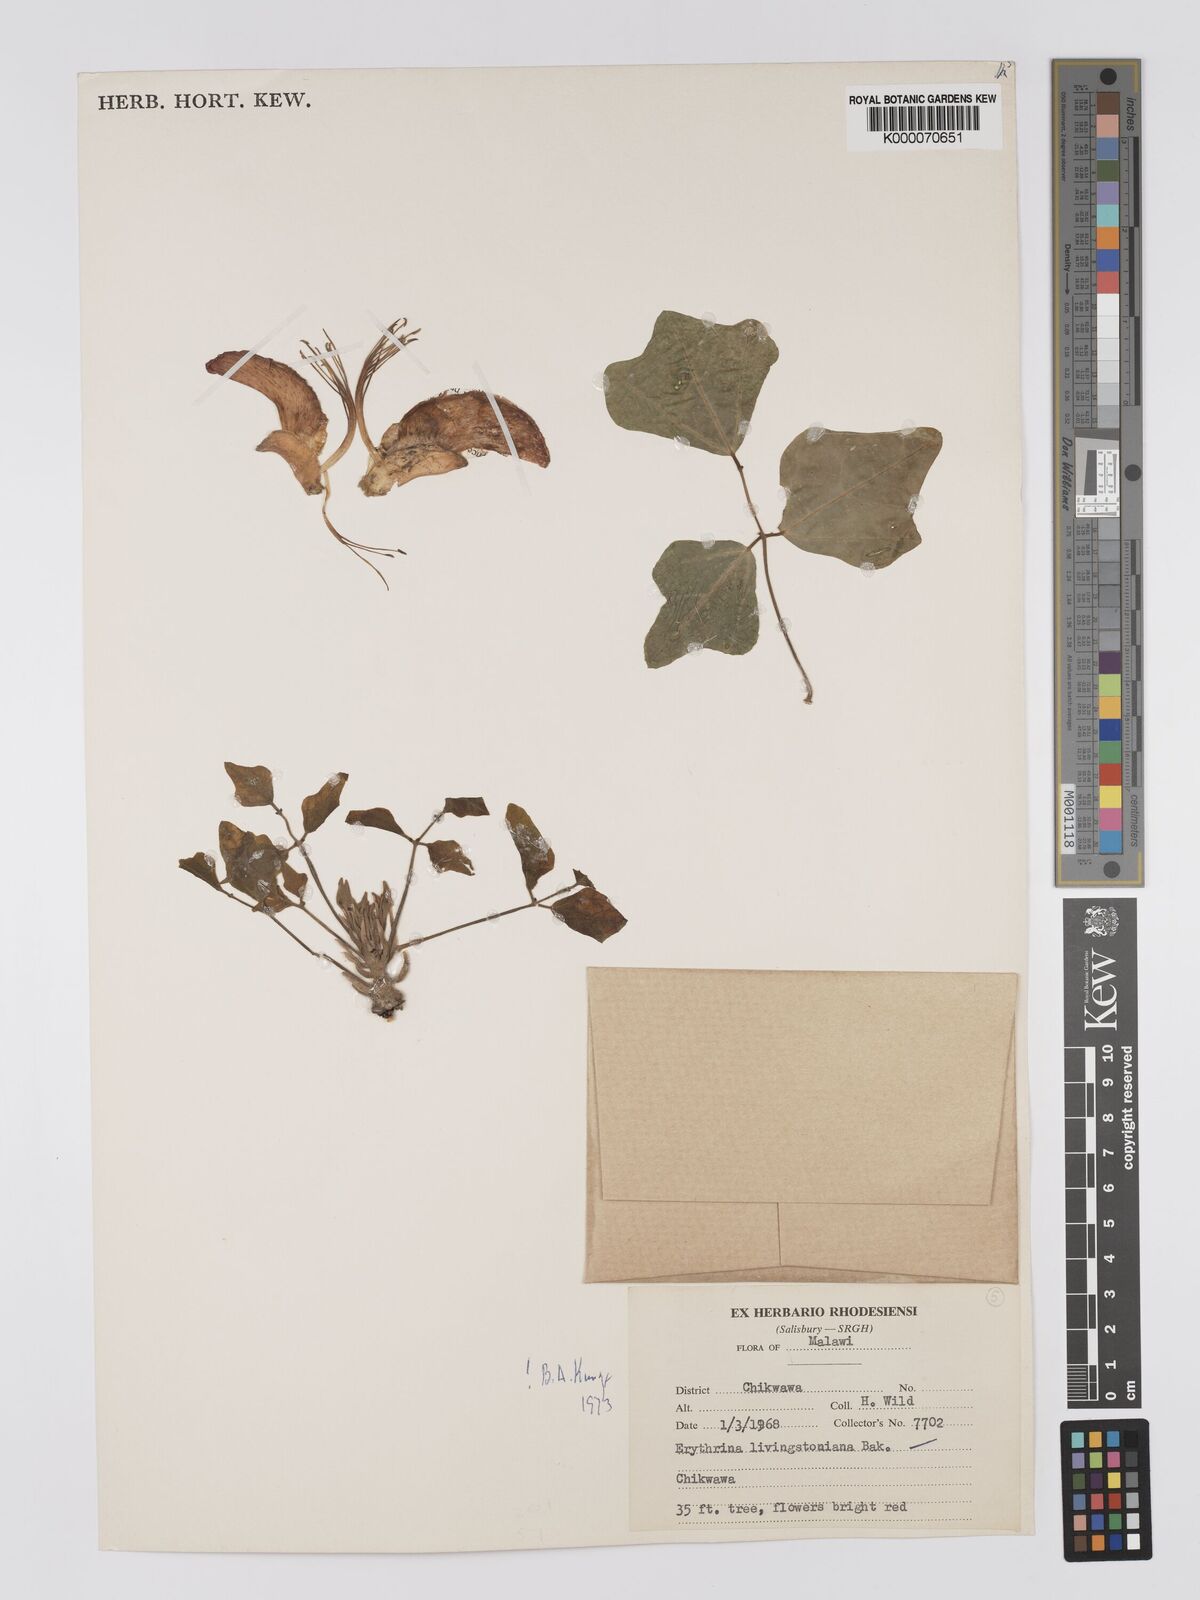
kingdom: Plantae
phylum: Tracheophyta
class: Magnoliopsida
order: Fabales
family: Fabaceae
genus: Erythrina
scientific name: Erythrina
